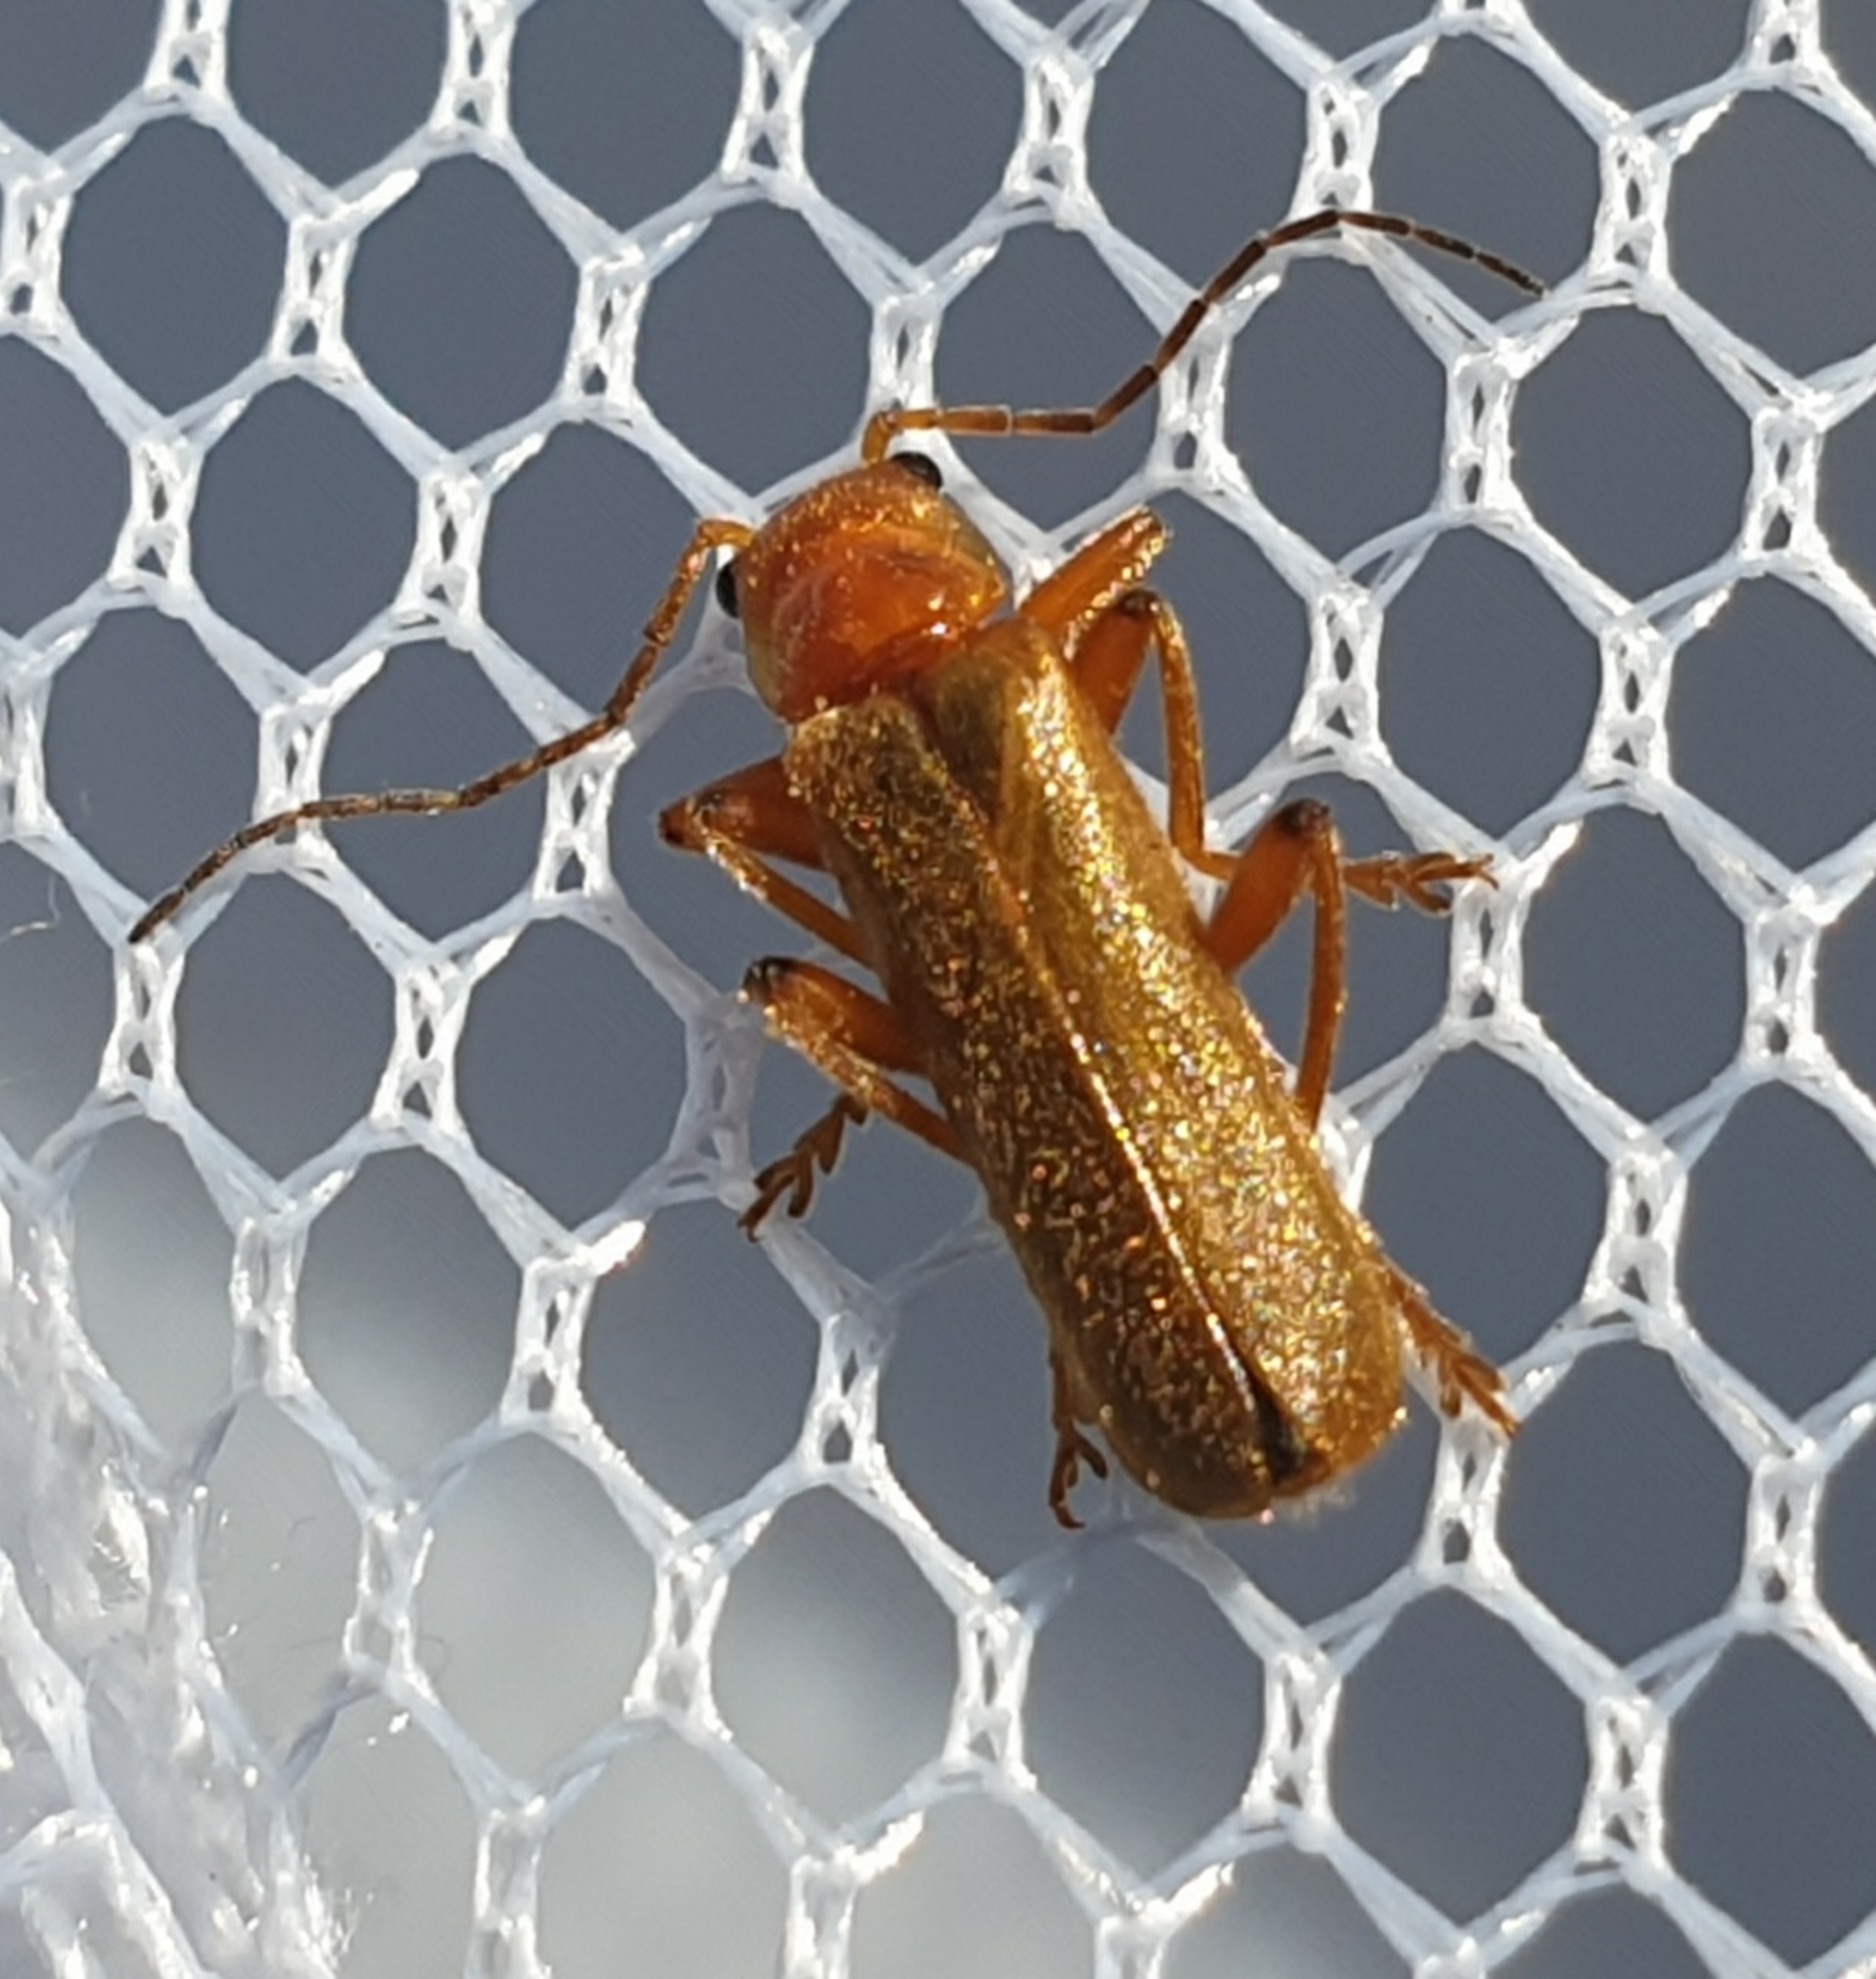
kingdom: Animalia
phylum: Arthropoda
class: Insecta
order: Coleoptera
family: Cantharidae
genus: Cantharis
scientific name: Cantharis
